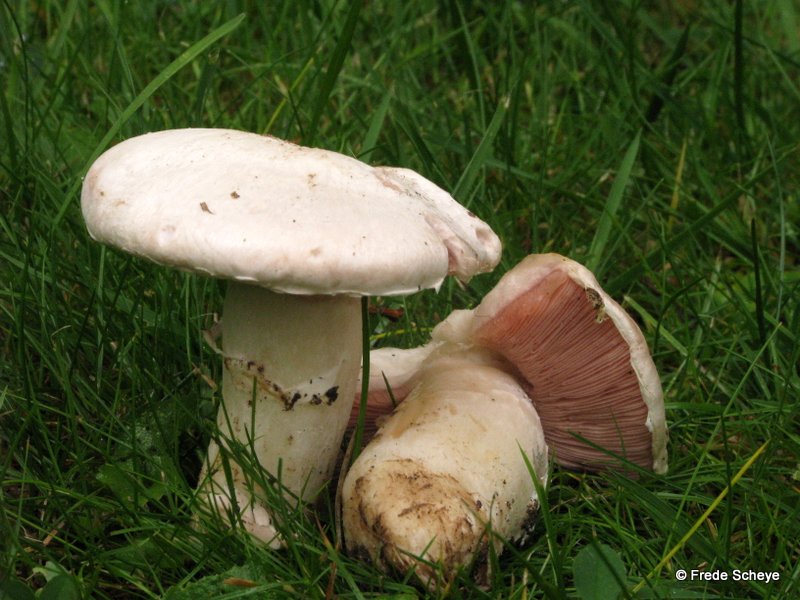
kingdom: Fungi
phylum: Basidiomycota
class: Agaricomycetes
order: Agaricales
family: Agaricaceae
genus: Agaricus
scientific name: Agaricus campestris
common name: mark-champignon
